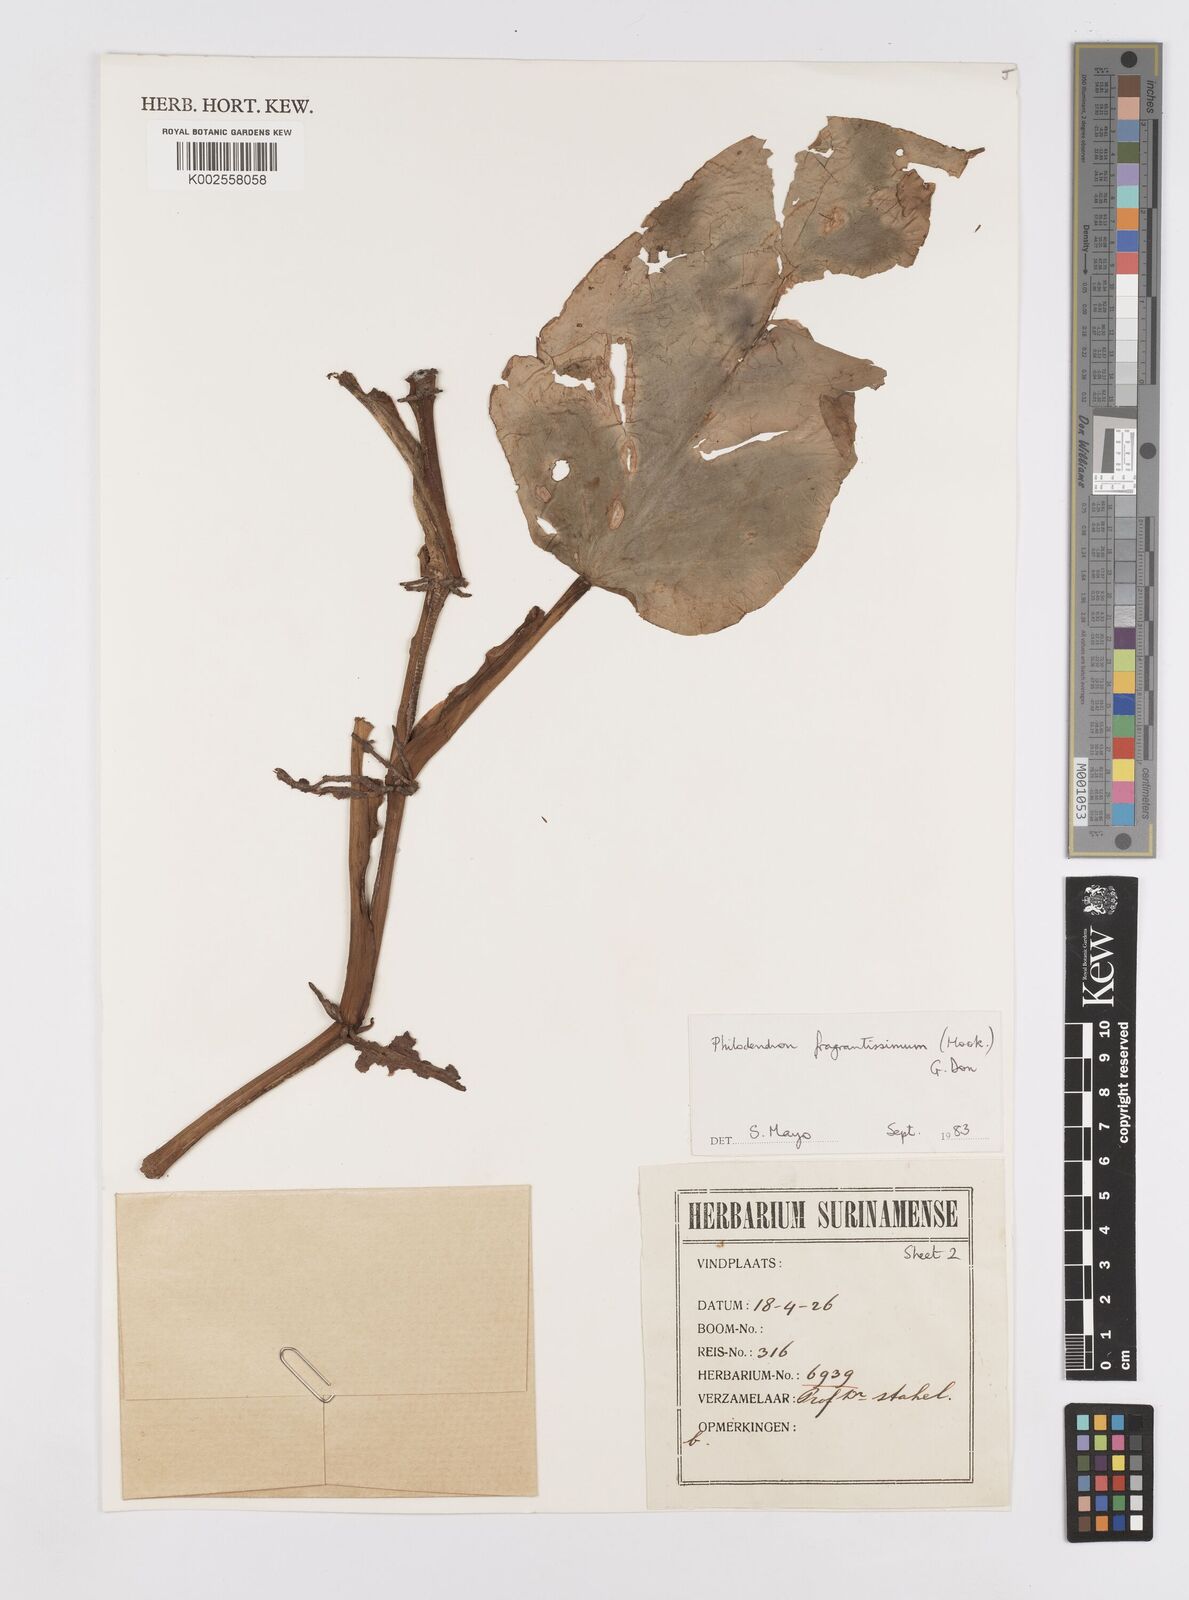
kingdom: Plantae
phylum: Tracheophyta
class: Liliopsida
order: Alismatales
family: Araceae
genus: Philodendron
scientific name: Philodendron fragrantissimum
